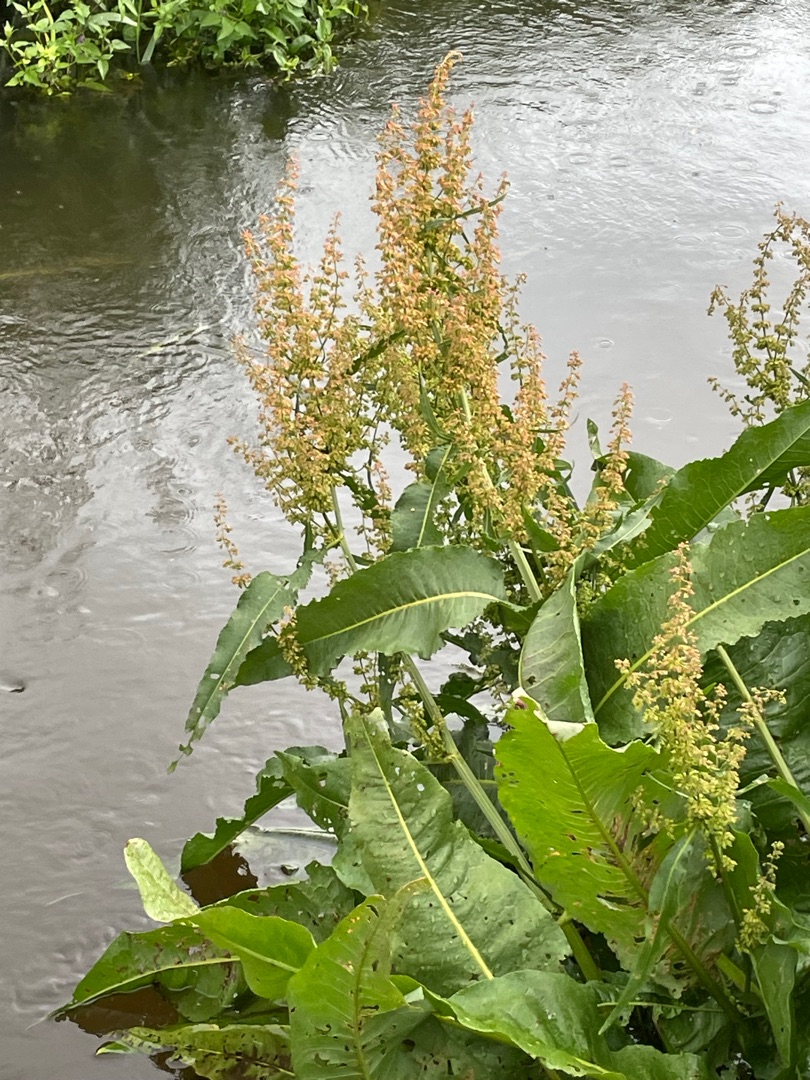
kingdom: Plantae
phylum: Tracheophyta
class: Magnoliopsida
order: Caryophyllales
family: Polygonaceae
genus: Rumex
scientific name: Rumex hydrolapathum
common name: Vand-skræppe
